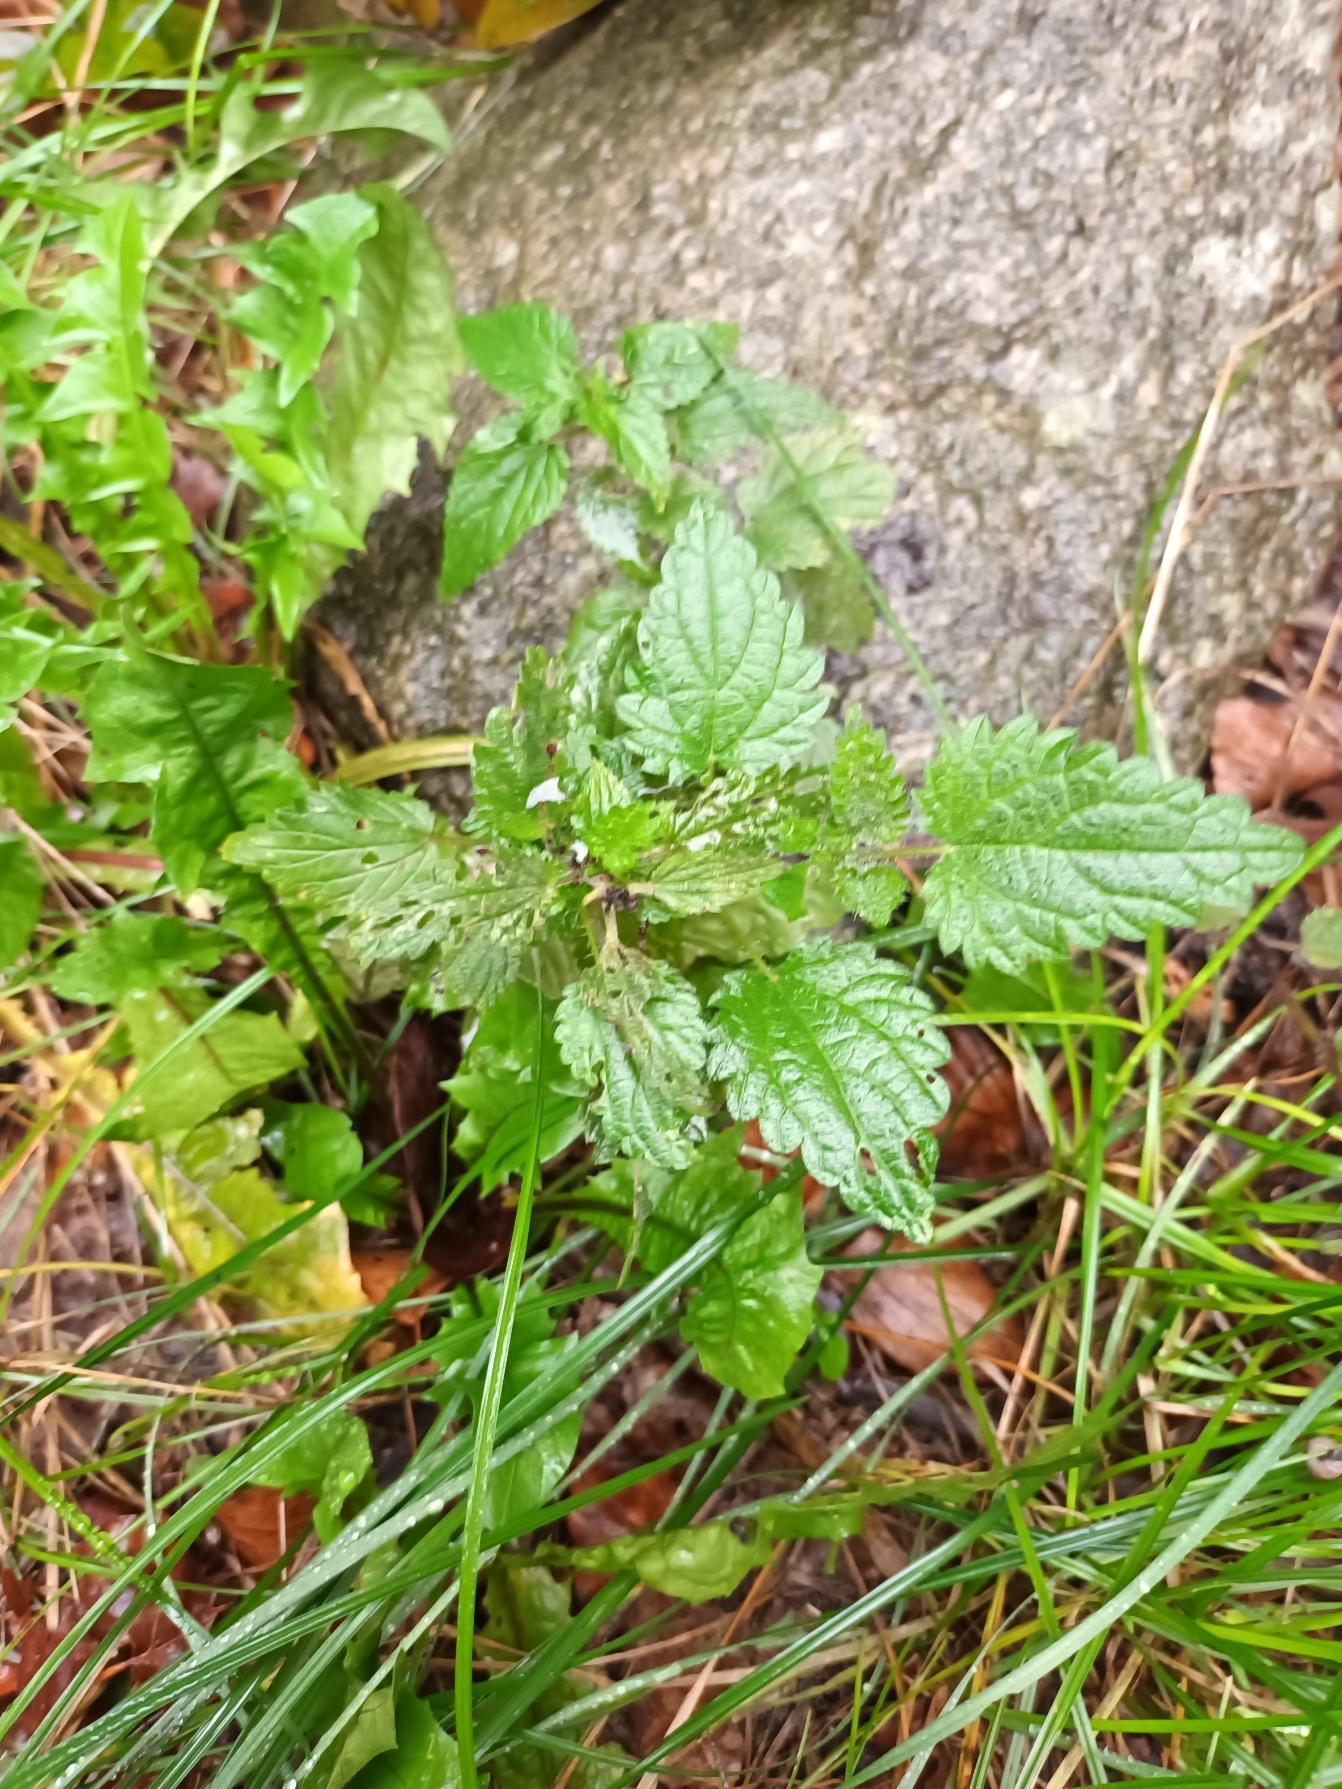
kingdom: Plantae
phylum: Tracheophyta
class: Magnoliopsida
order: Rosales
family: Urticaceae
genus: Urtica
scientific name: Urtica dioica
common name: Stor nælde
